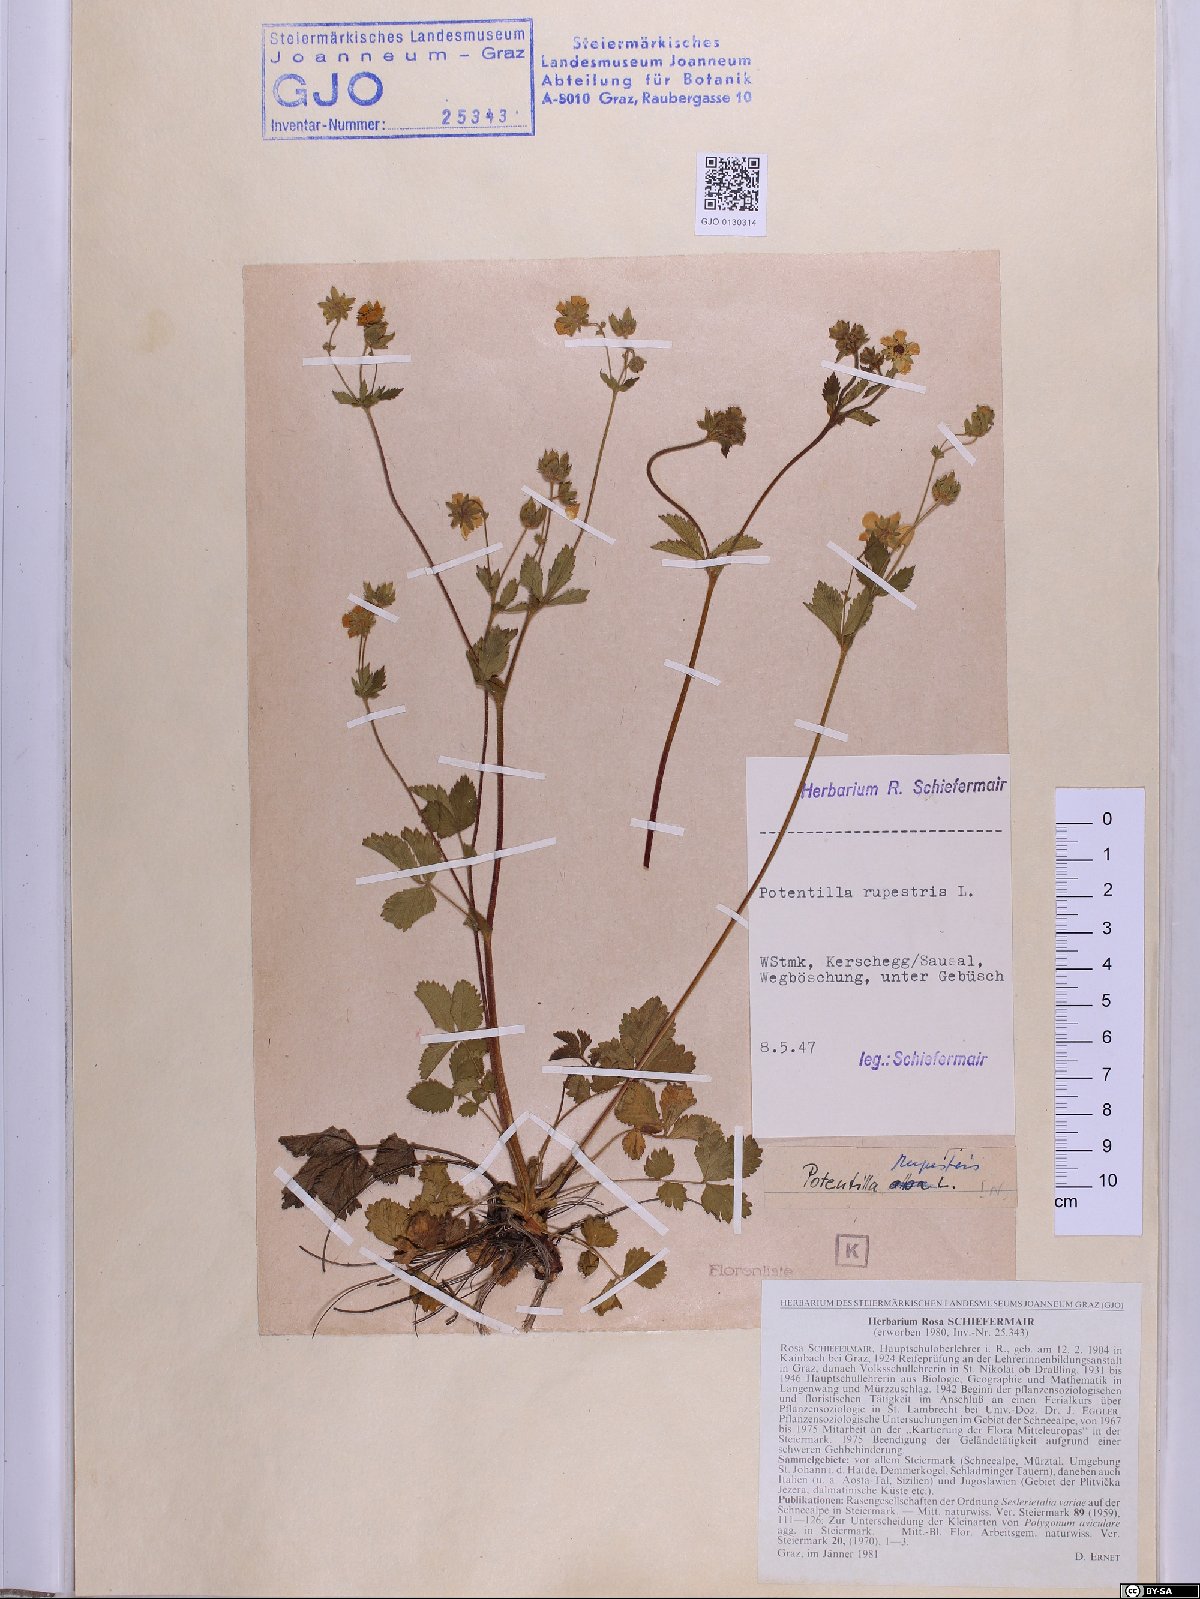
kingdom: Plantae
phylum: Tracheophyta
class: Magnoliopsida
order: Rosales
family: Rosaceae
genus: Drymocallis
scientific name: Drymocallis rupestris
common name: Rock cinquefoil
